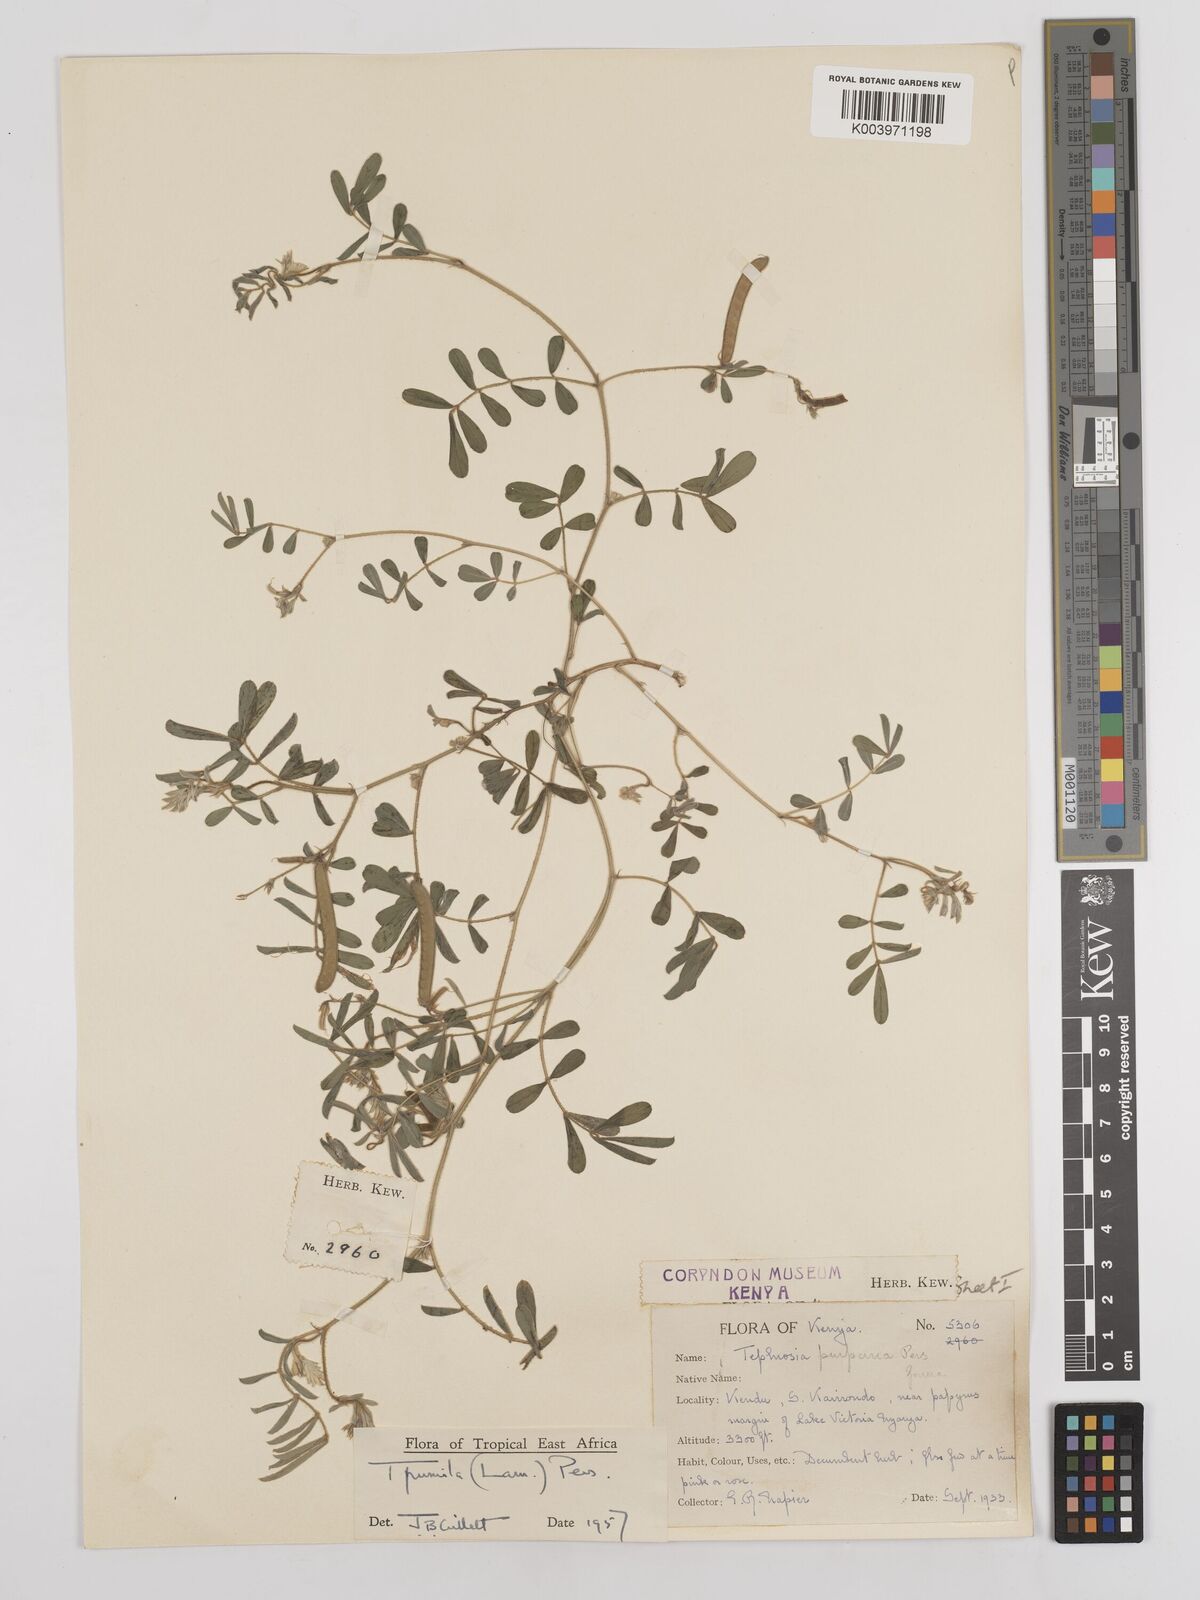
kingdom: Plantae
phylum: Tracheophyta
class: Magnoliopsida
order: Fabales
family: Fabaceae
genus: Tephrosia
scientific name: Tephrosia pumila
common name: Indigo sauvage
